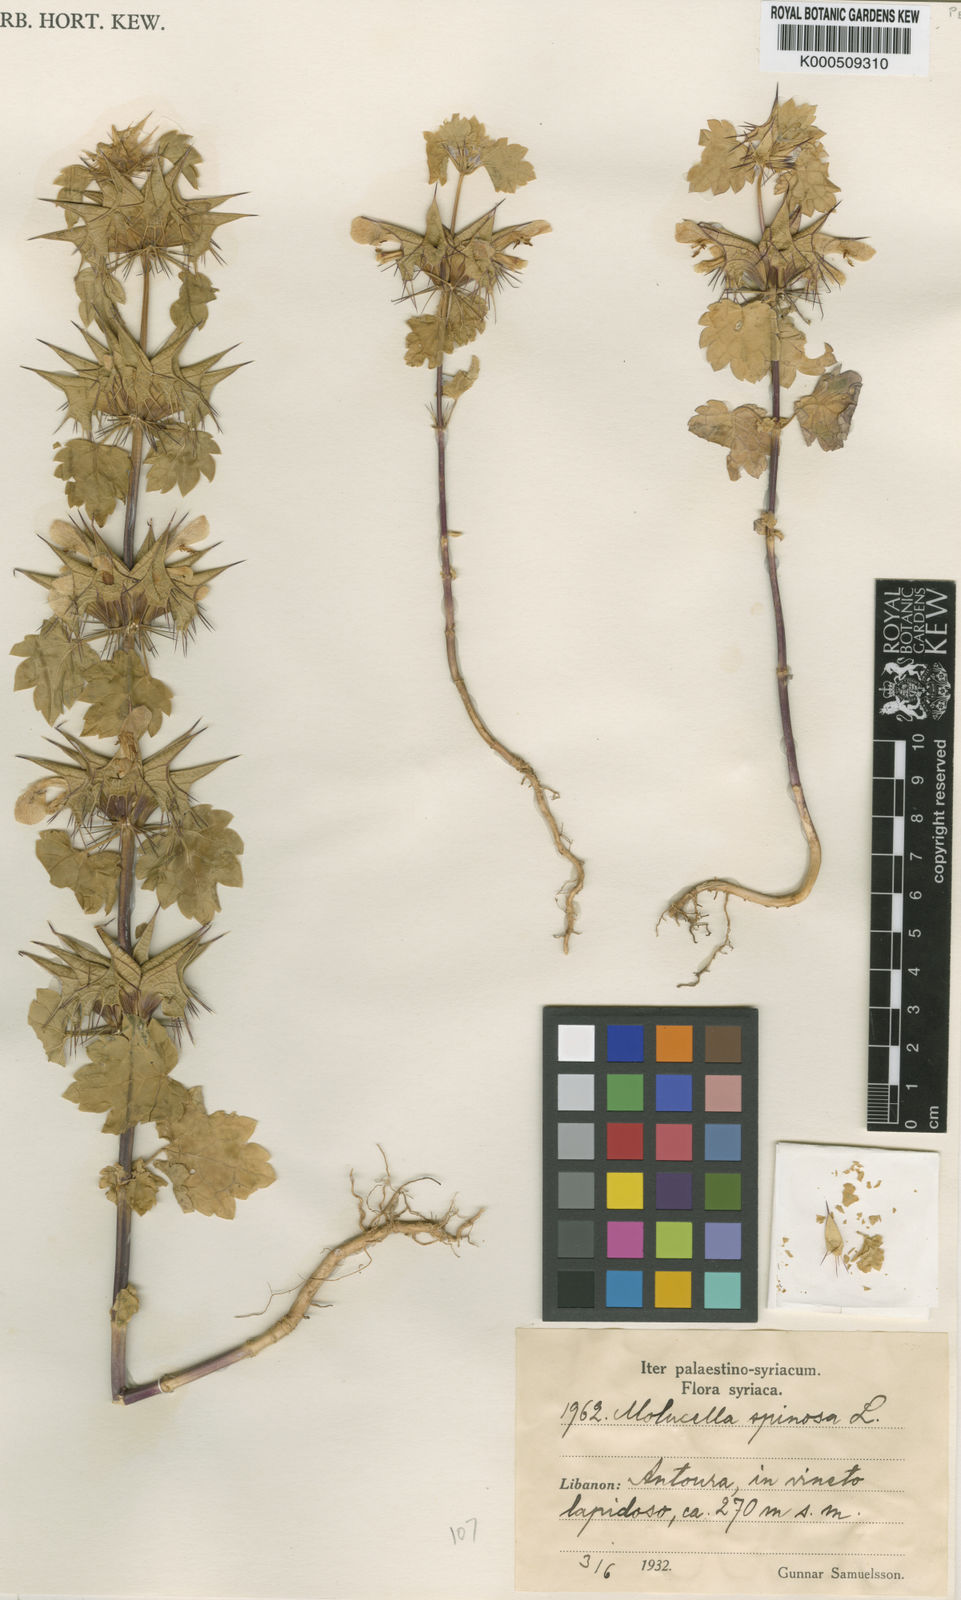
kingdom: Plantae
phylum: Tracheophyta
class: Magnoliopsida
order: Lamiales
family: Lamiaceae
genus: Moluccella
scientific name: Moluccella spinosa
